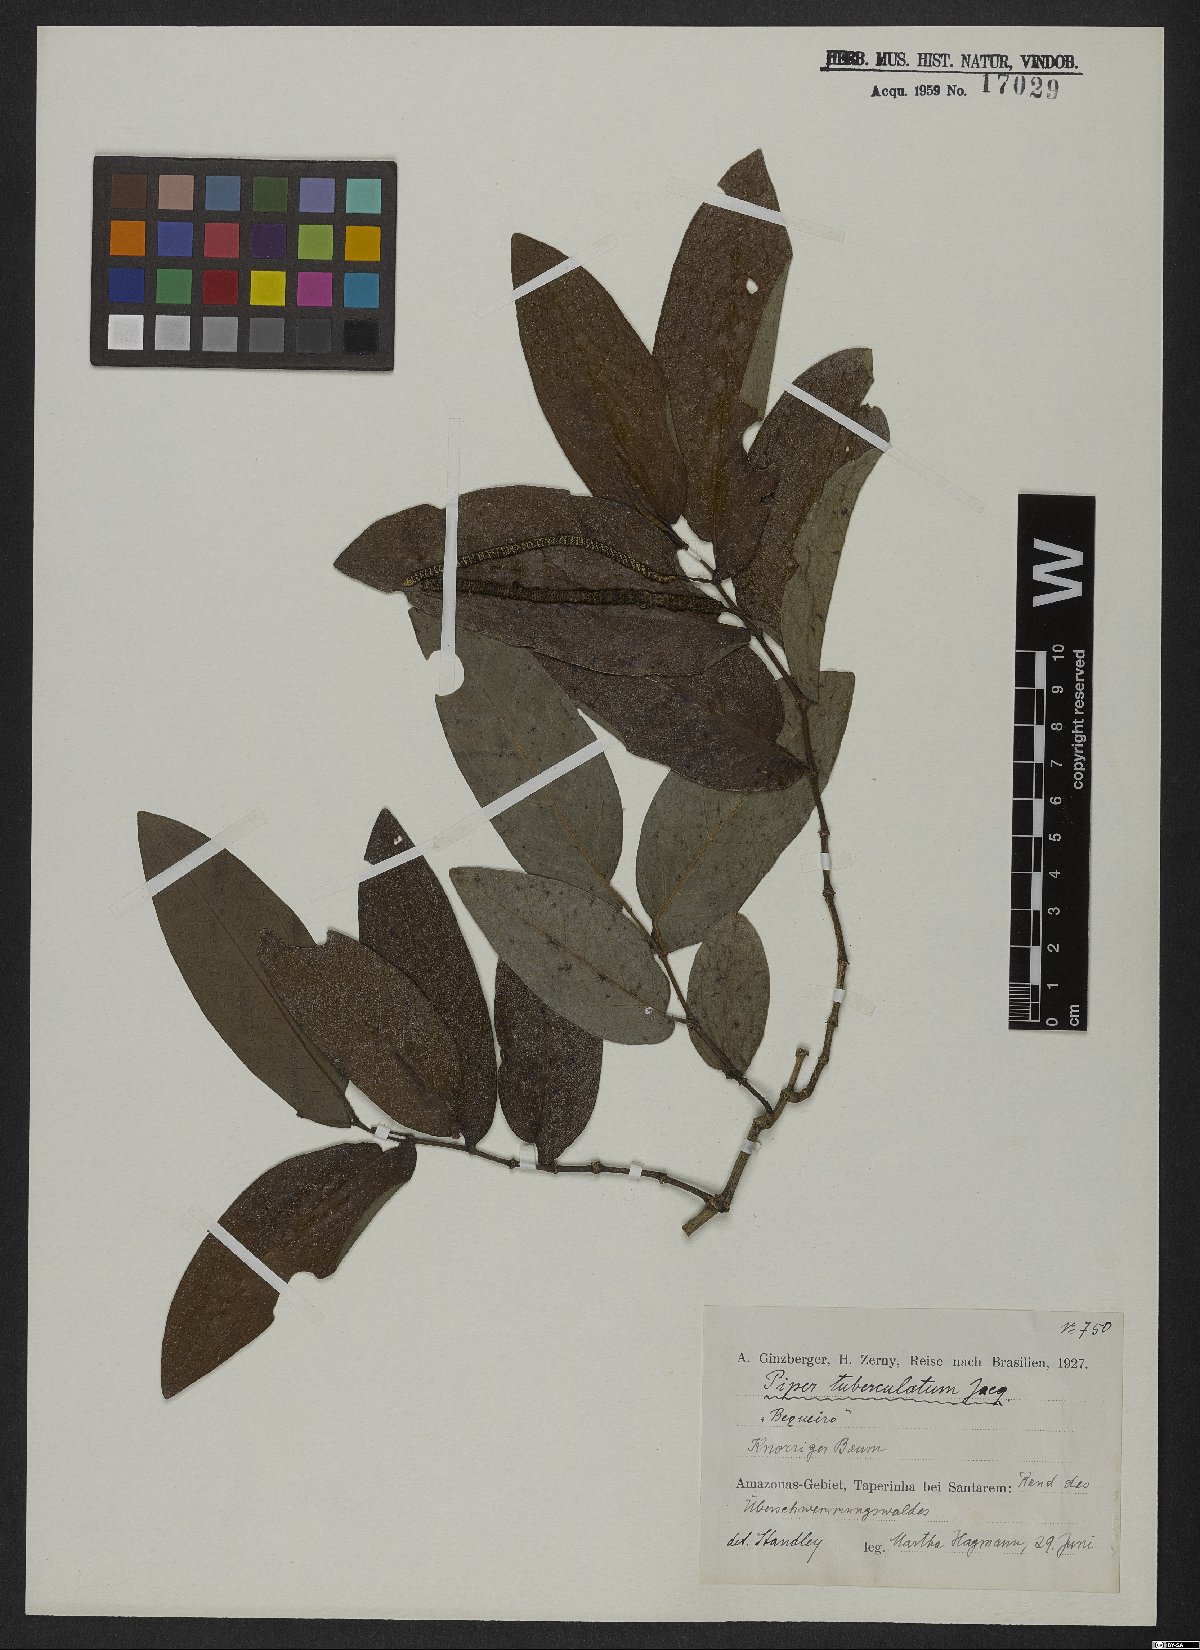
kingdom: Plantae
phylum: Tracheophyta
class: Magnoliopsida
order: Piperales
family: Piperaceae
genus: Piper
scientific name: Piper tuberculatum
